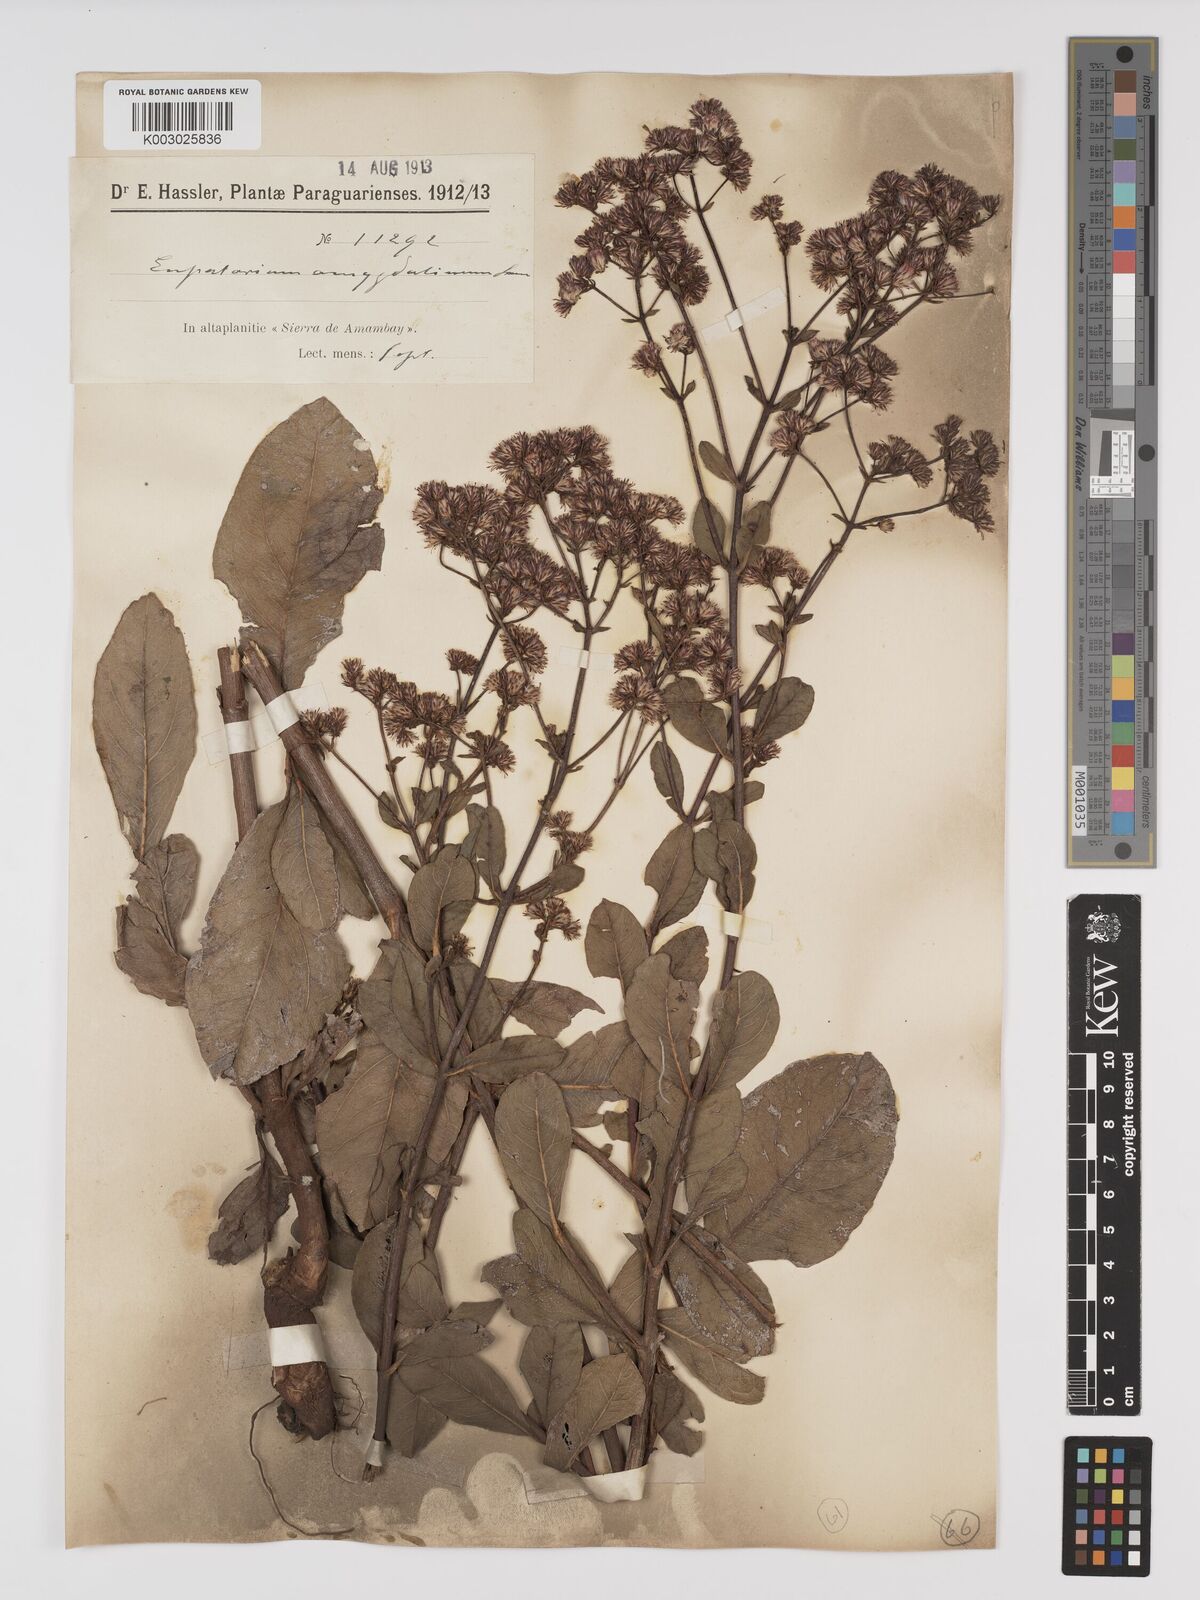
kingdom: Plantae
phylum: Tracheophyta
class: Magnoliopsida
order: Asterales
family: Asteraceae
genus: Ayapana
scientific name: Ayapana amygdalina
